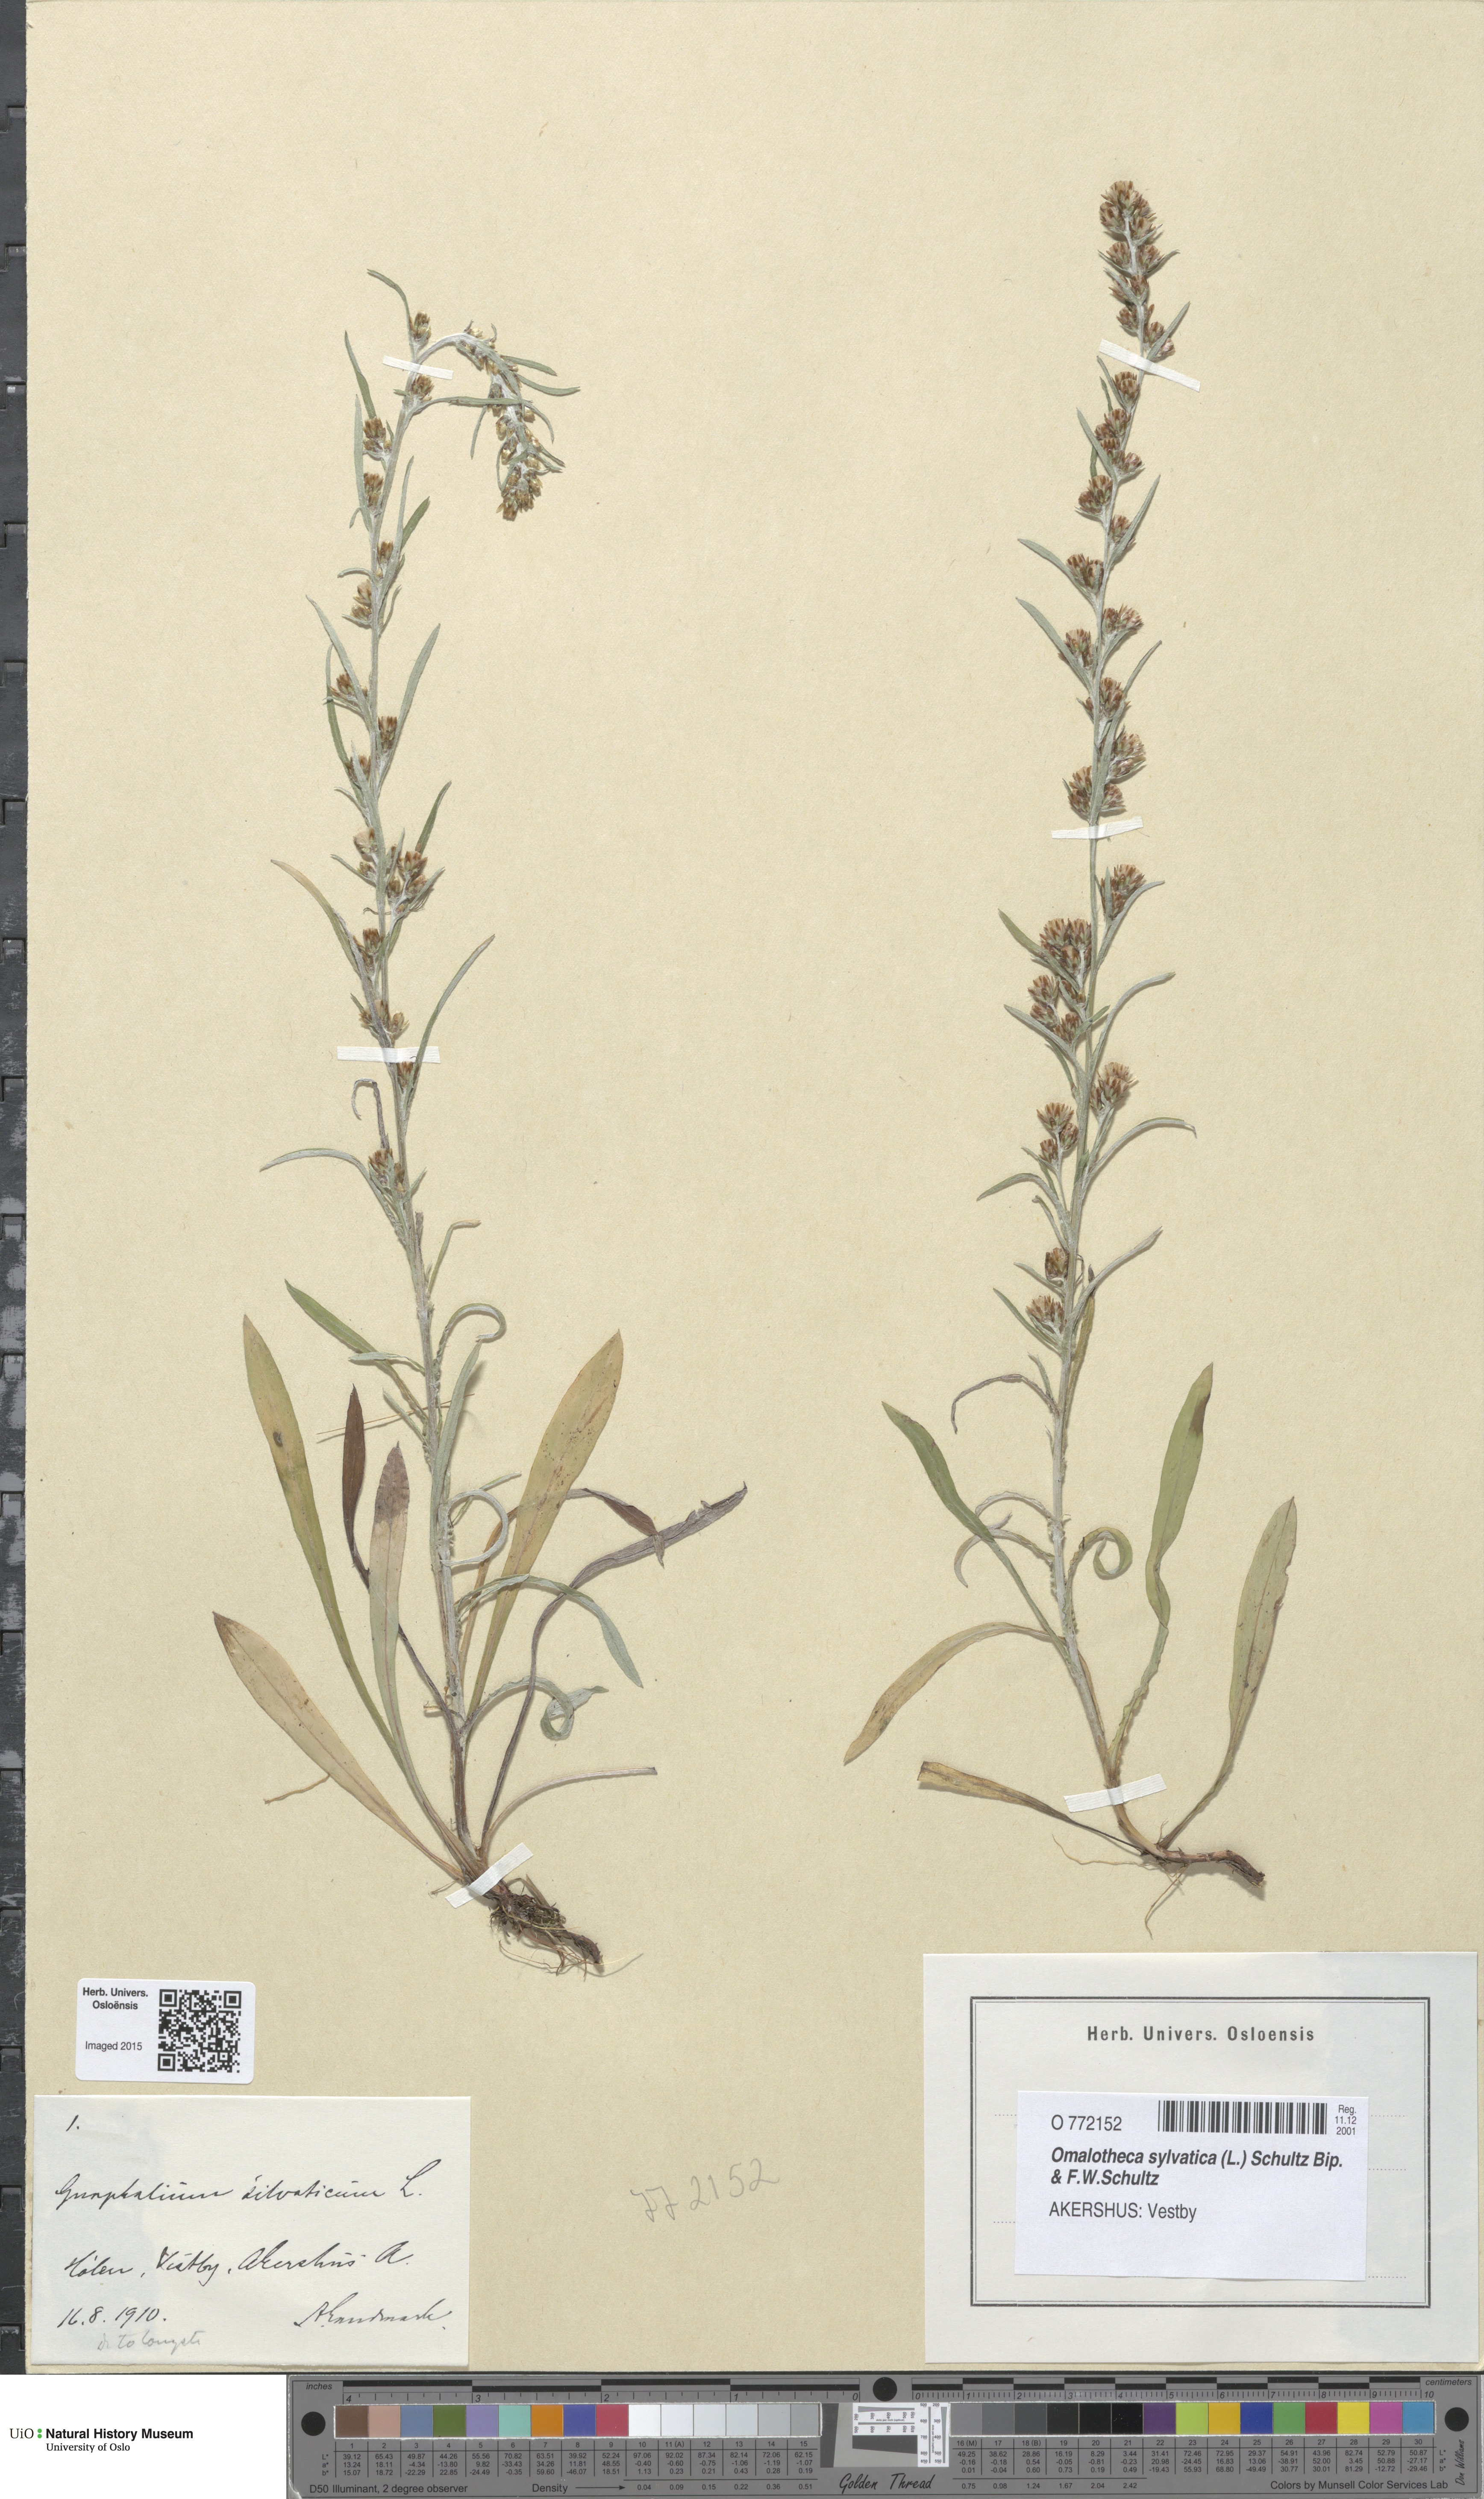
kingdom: Plantae
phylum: Tracheophyta
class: Magnoliopsida
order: Asterales
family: Asteraceae
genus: Omalotheca
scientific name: Omalotheca sylvatica
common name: Heath cudweed
